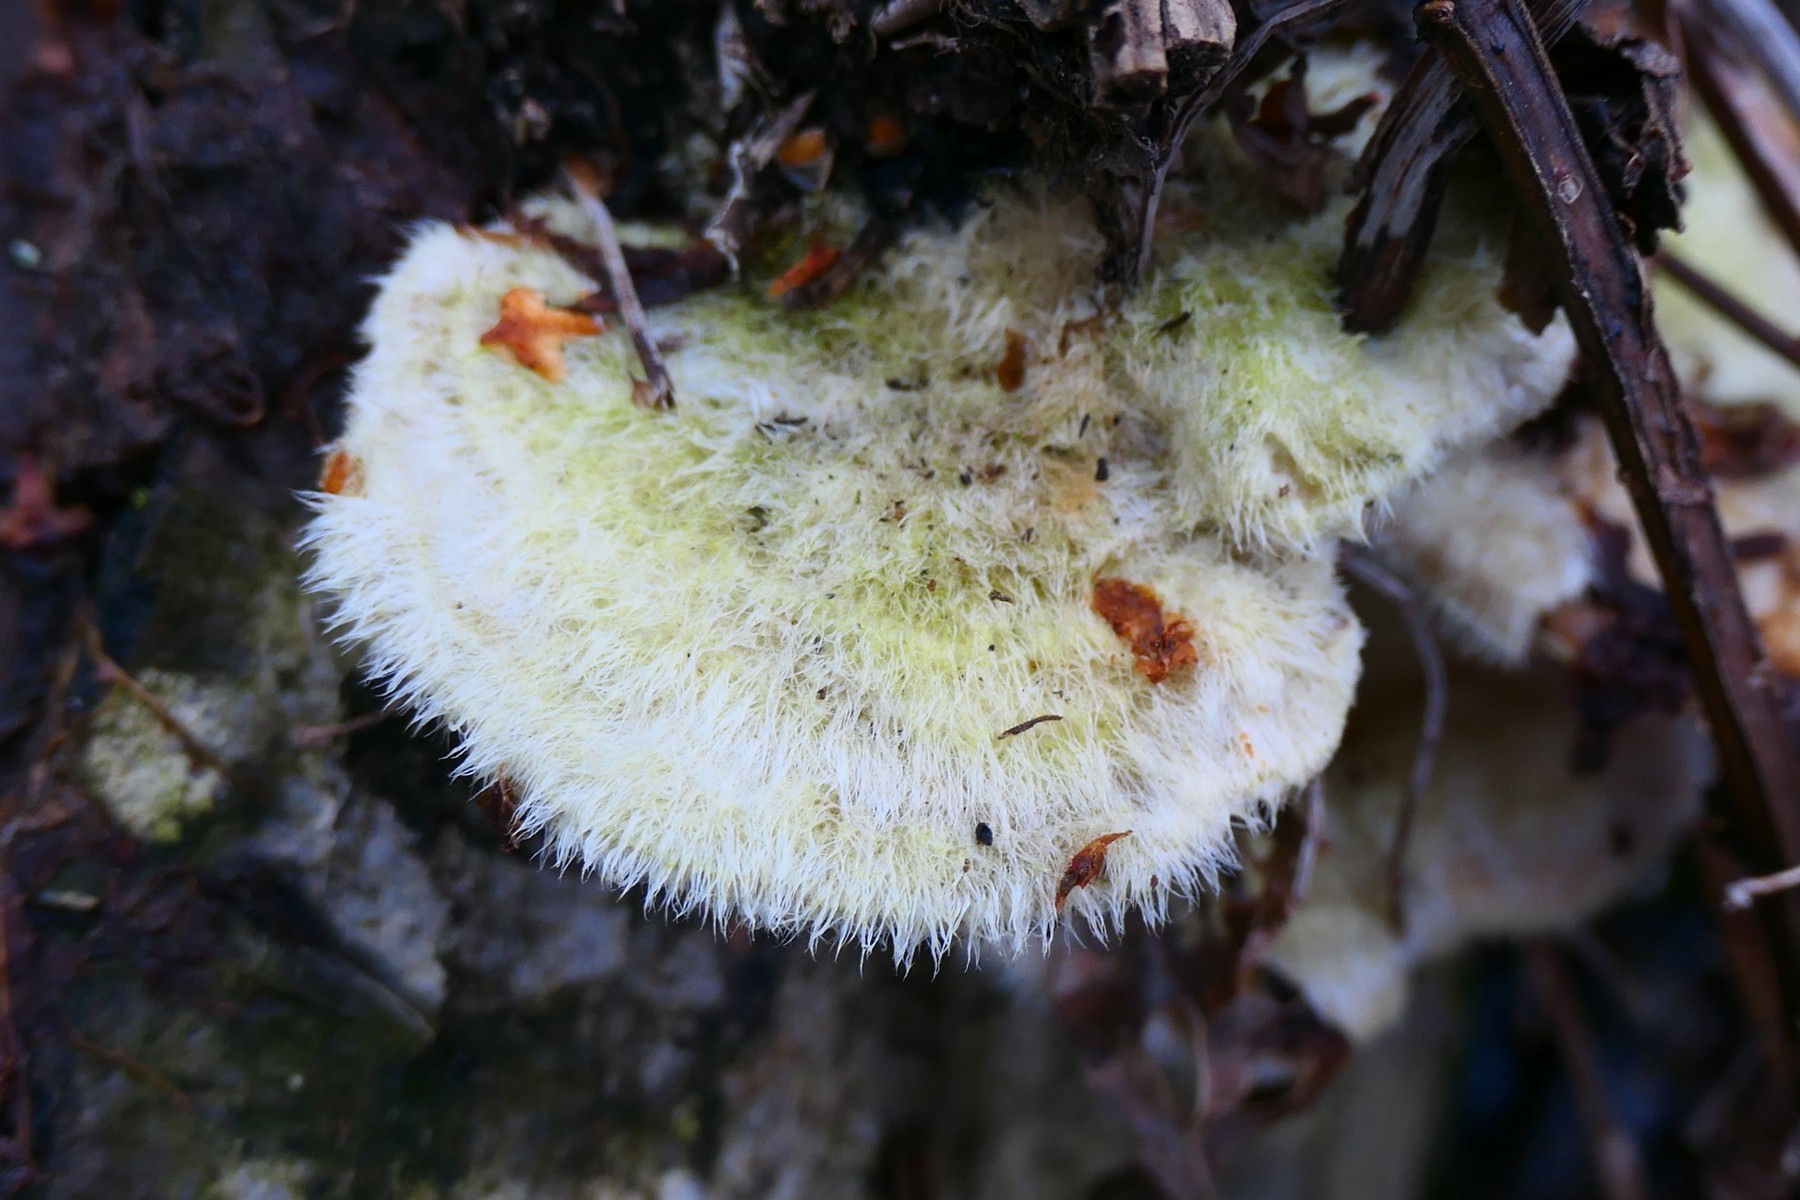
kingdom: Fungi
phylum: Basidiomycota
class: Agaricomycetes
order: Polyporales
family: Polyporaceae
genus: Trametes
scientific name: Trametes hirsuta
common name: håret læderporesvamp
